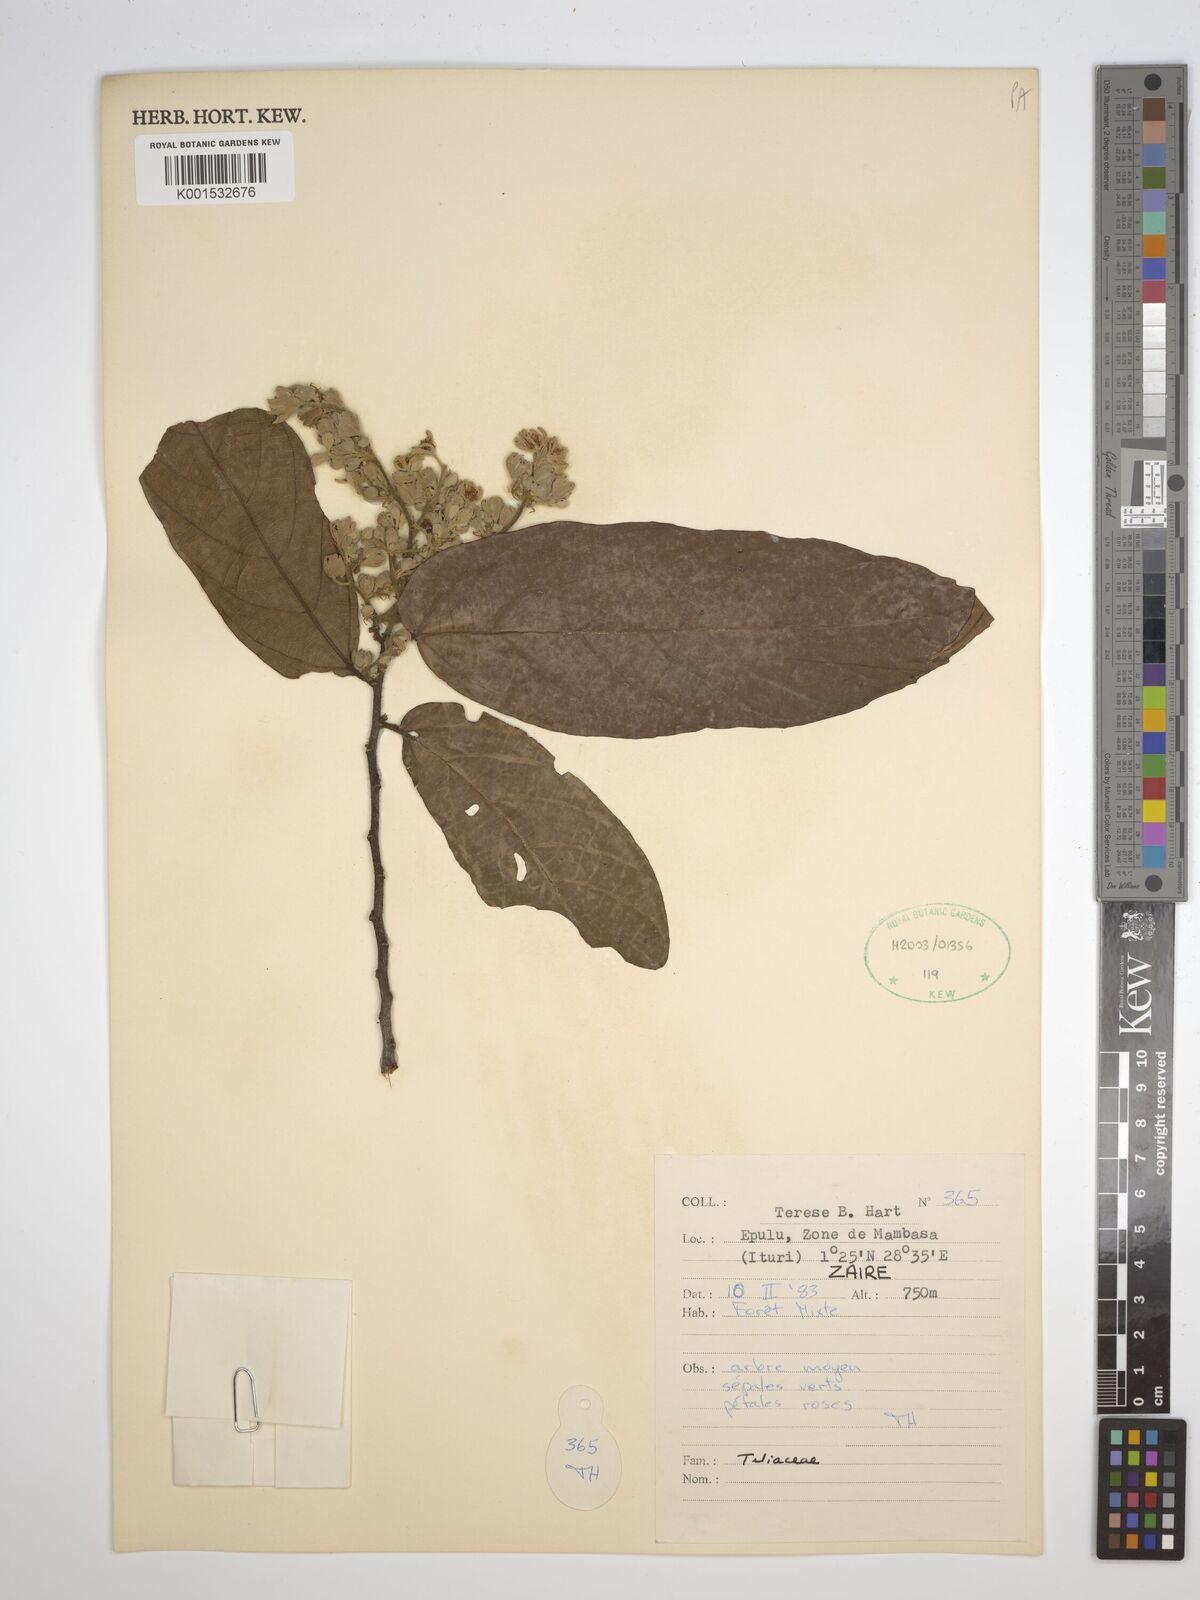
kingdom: Plantae
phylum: Tracheophyta
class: Magnoliopsida
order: Malvales
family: Tiliaceae
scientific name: Tiliaceae
